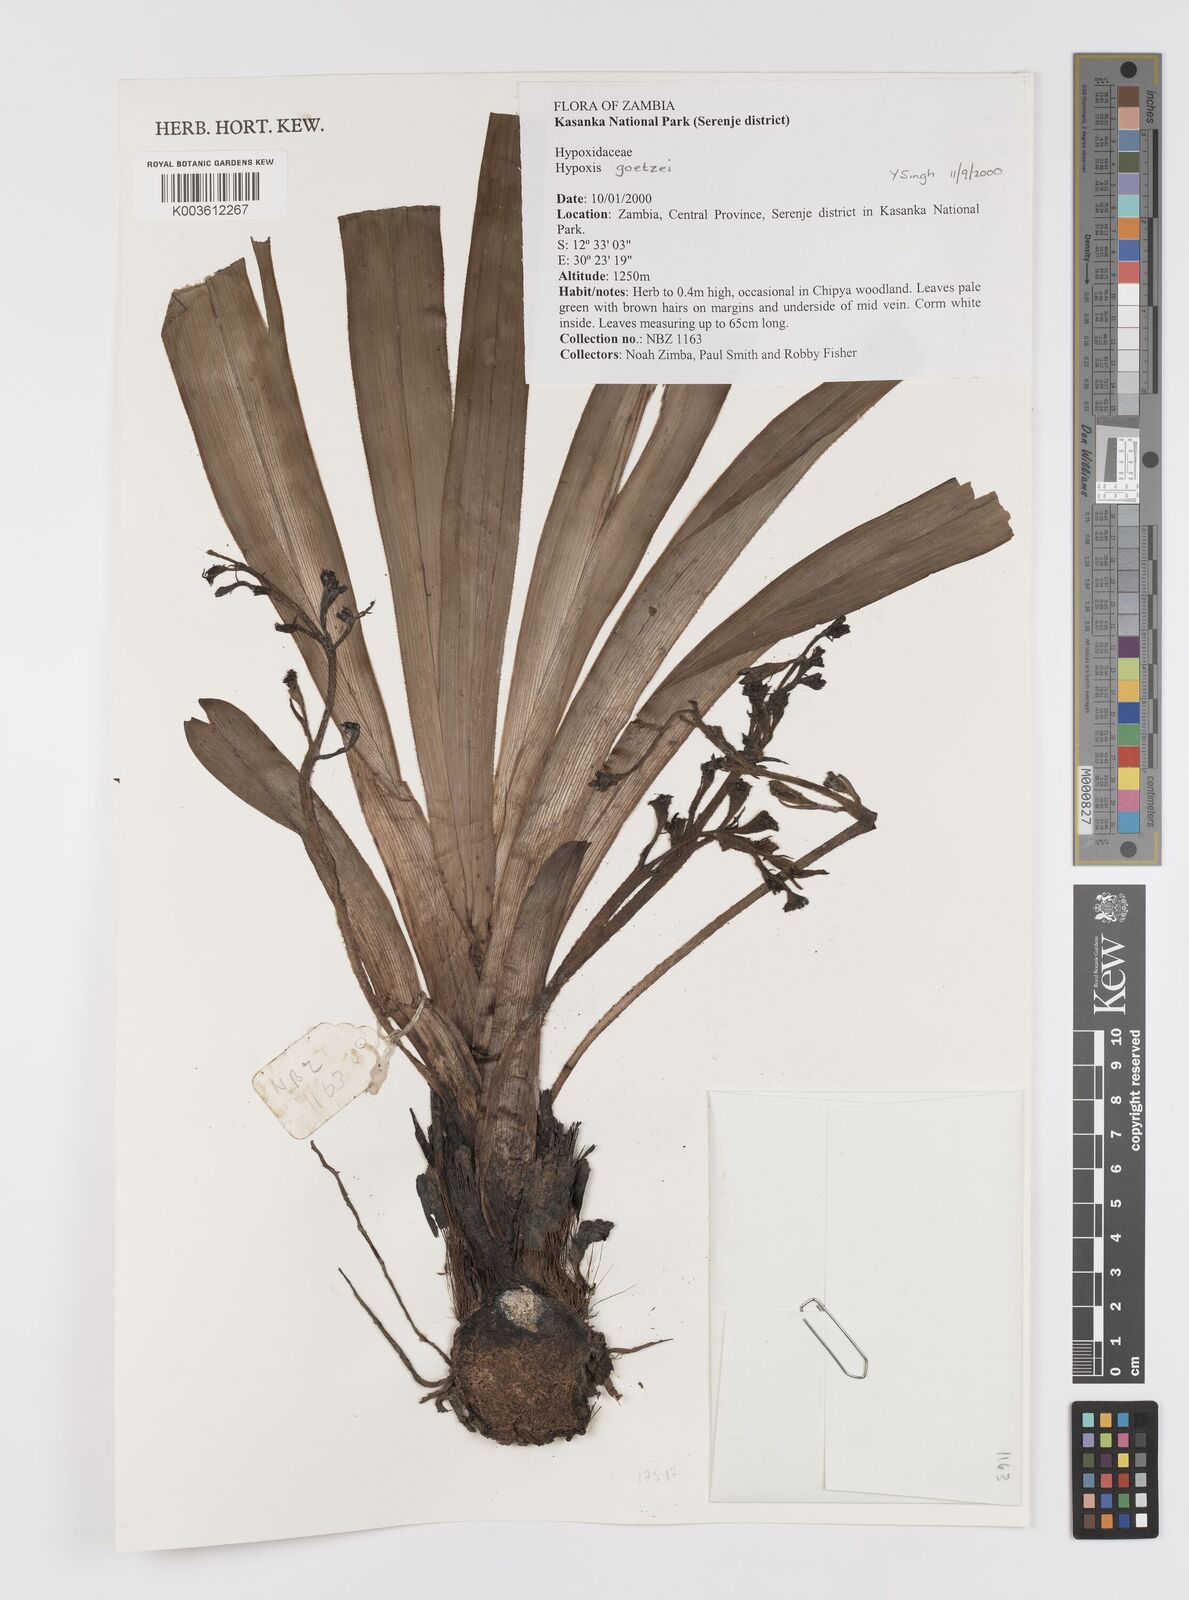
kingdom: Plantae
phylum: Tracheophyta
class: Liliopsida
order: Asparagales
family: Hypoxidaceae
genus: Hypoxis
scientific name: Hypoxis goetzei
